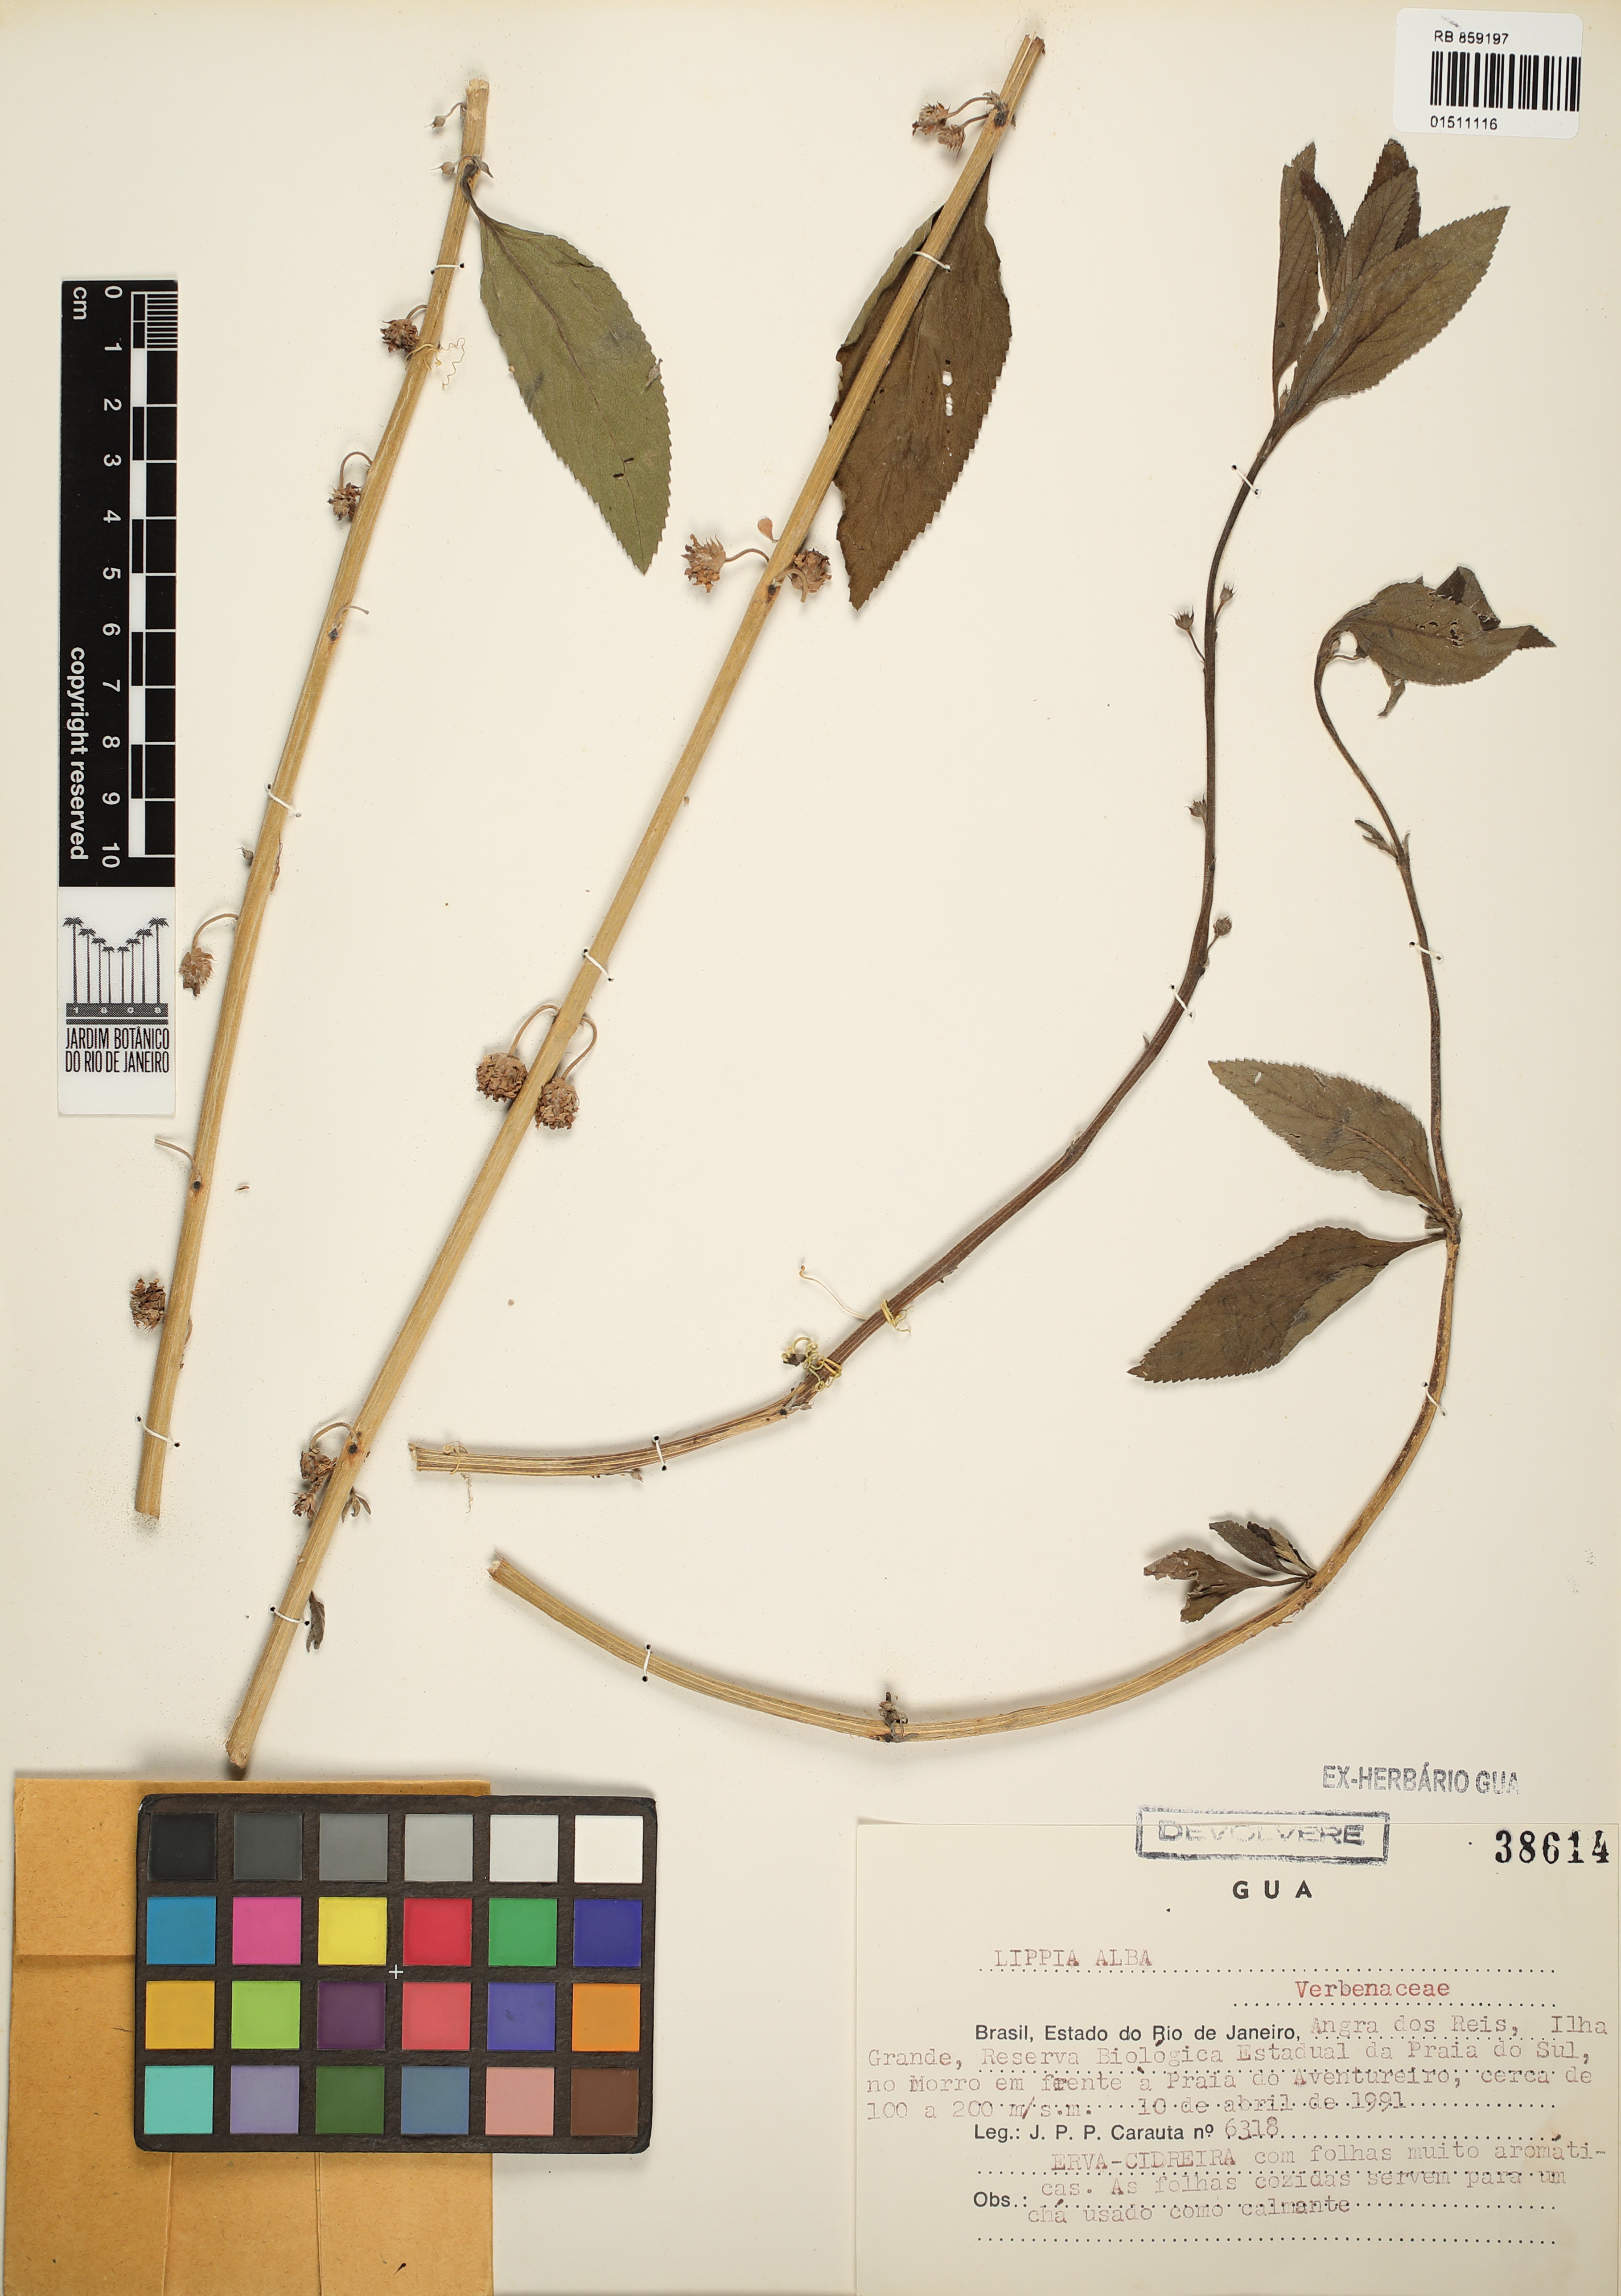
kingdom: Plantae
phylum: Tracheophyta
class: Magnoliopsida
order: Lamiales
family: Verbenaceae
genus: Lippia
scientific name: Lippia alba
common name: Bushy matgrass
